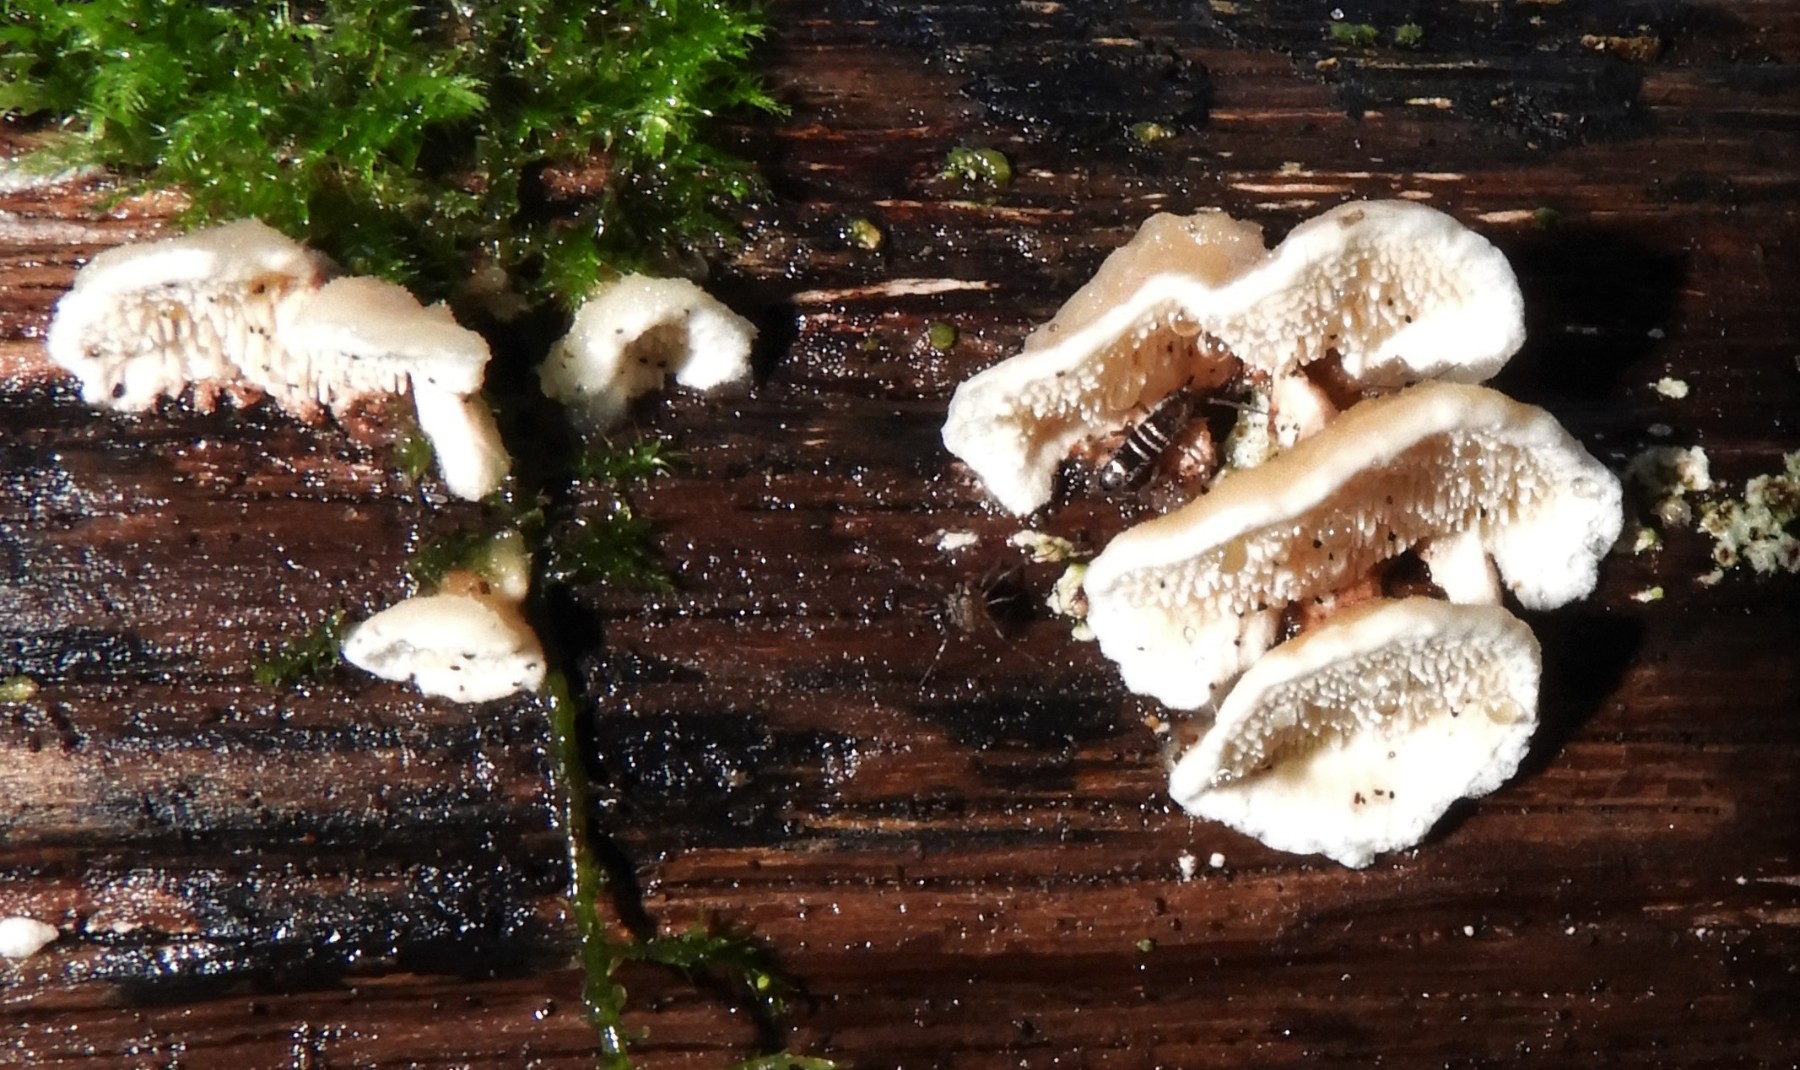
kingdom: Fungi
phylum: Basidiomycota
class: Agaricomycetes
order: Polyporales
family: Steccherinaceae
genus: Steccherinum
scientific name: Steccherinum bourdotii
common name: hat-skønpig
